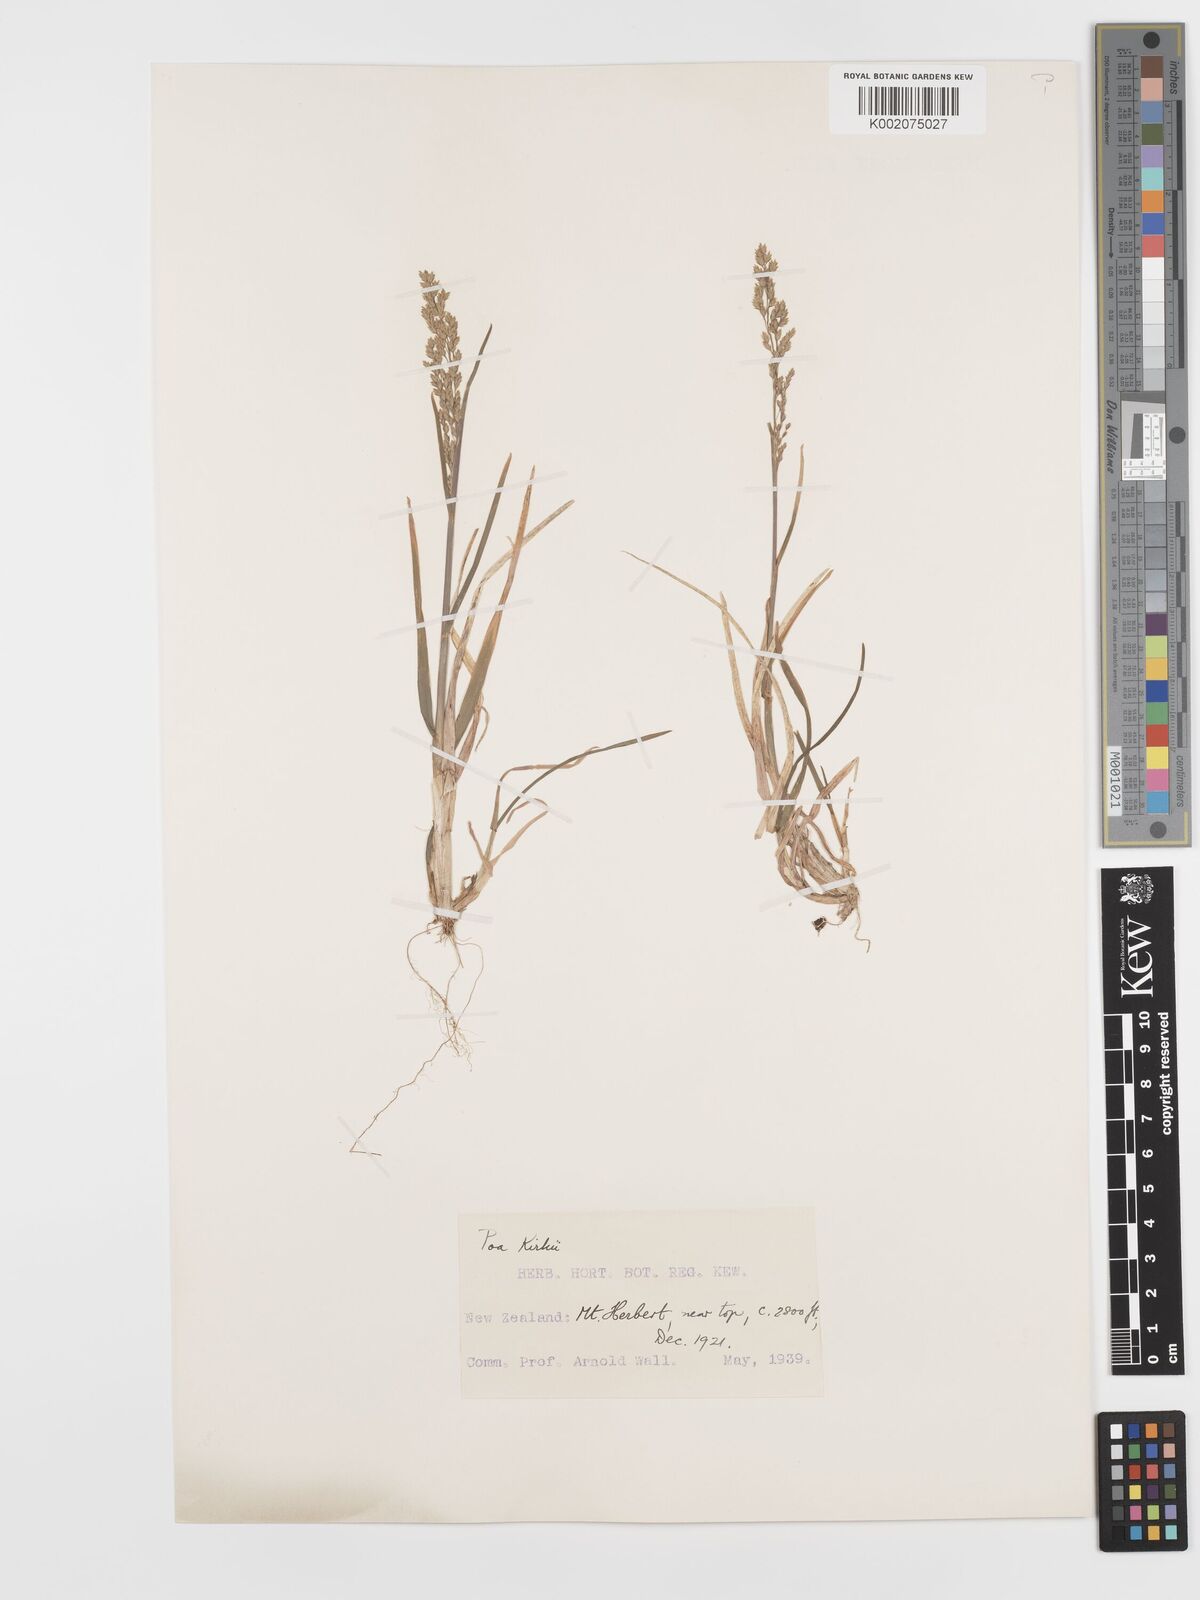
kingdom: Plantae
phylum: Tracheophyta
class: Liliopsida
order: Poales
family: Poaceae
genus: Poa
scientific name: Poa kirkii
